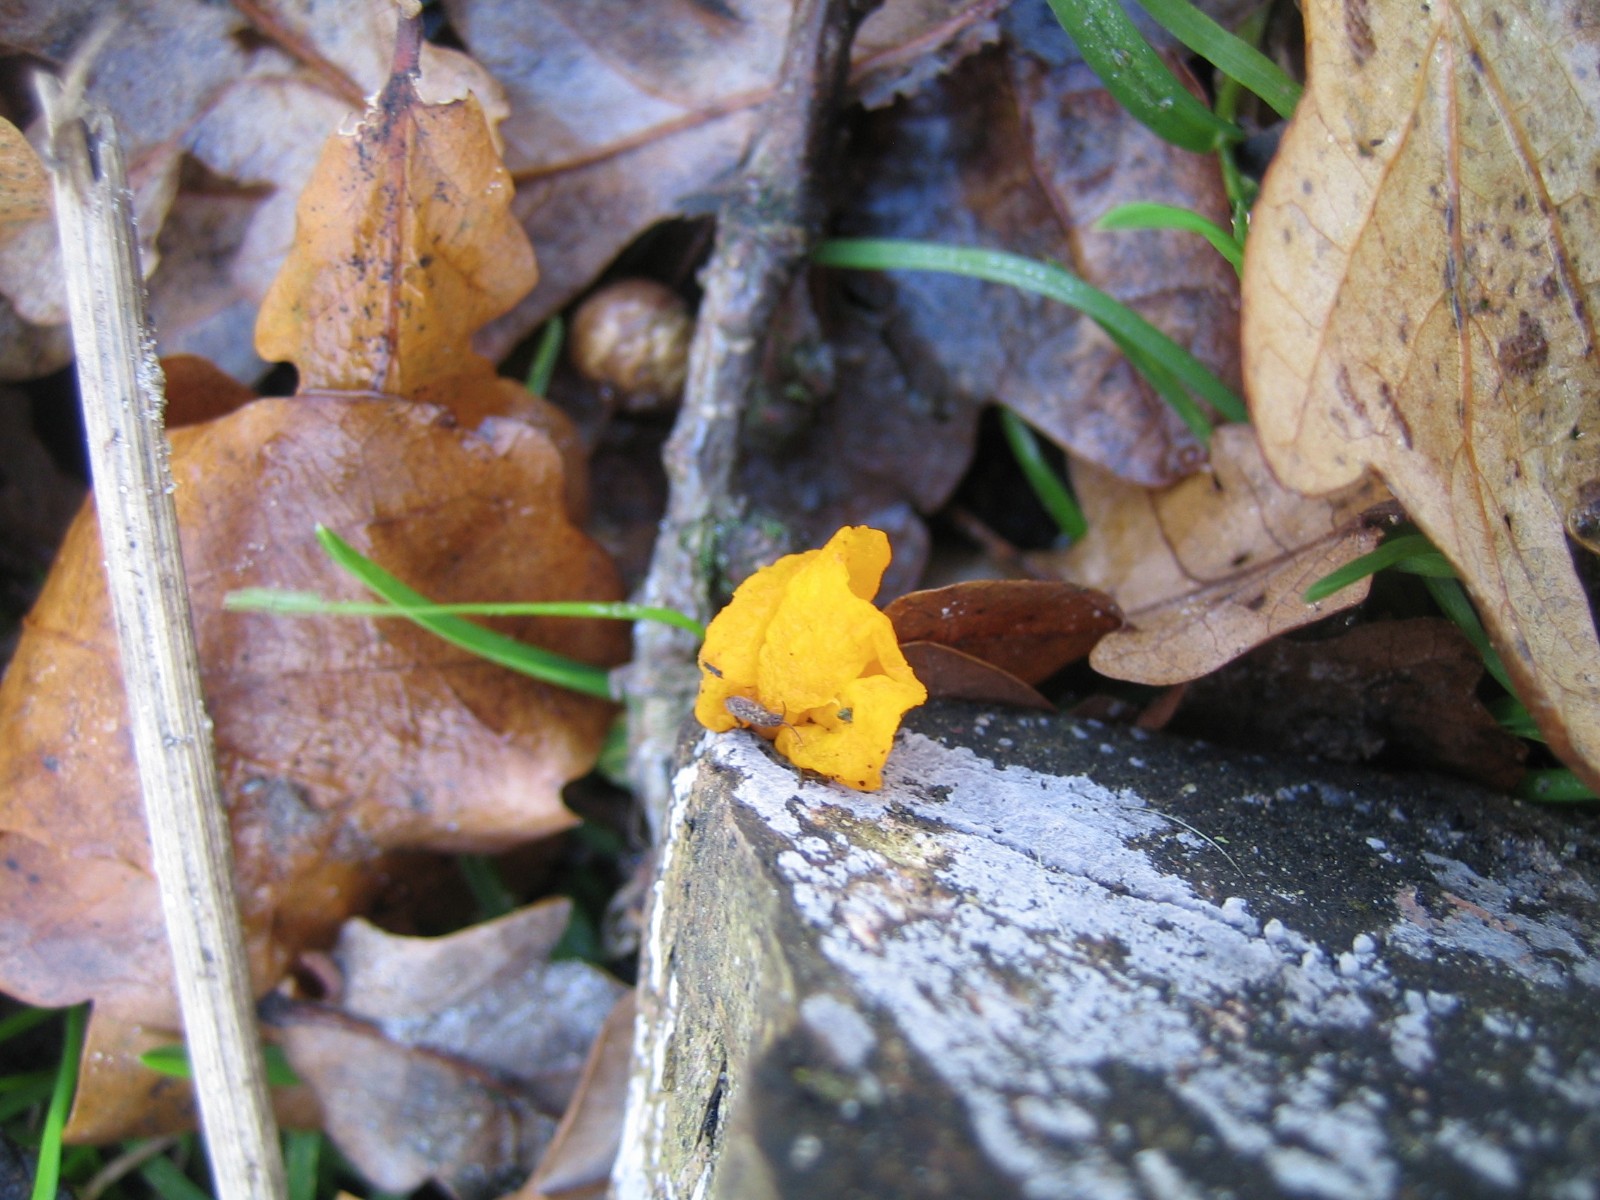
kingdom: Fungi
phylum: Basidiomycota
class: Tremellomycetes
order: Tremellales
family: Tremellaceae
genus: Tremella
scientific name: Tremella mesenterica
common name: gul bævresvamp
